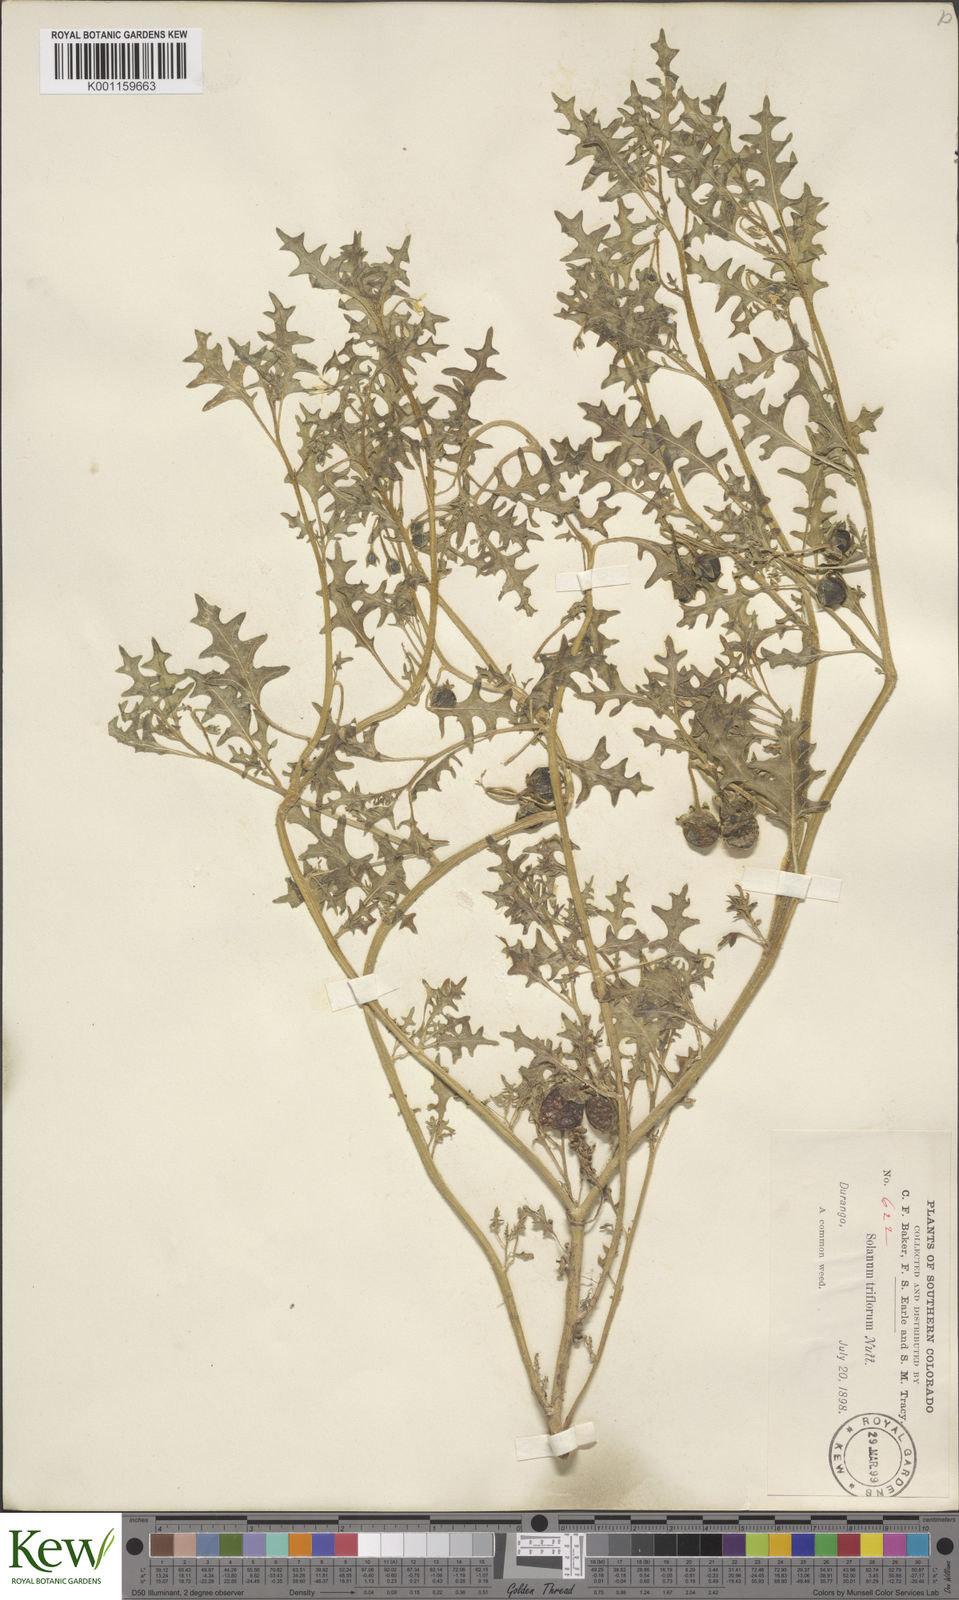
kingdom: Plantae
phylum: Tracheophyta
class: Magnoliopsida
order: Solanales
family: Solanaceae
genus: Solanum
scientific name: Solanum triflorum
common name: Small nightshade
